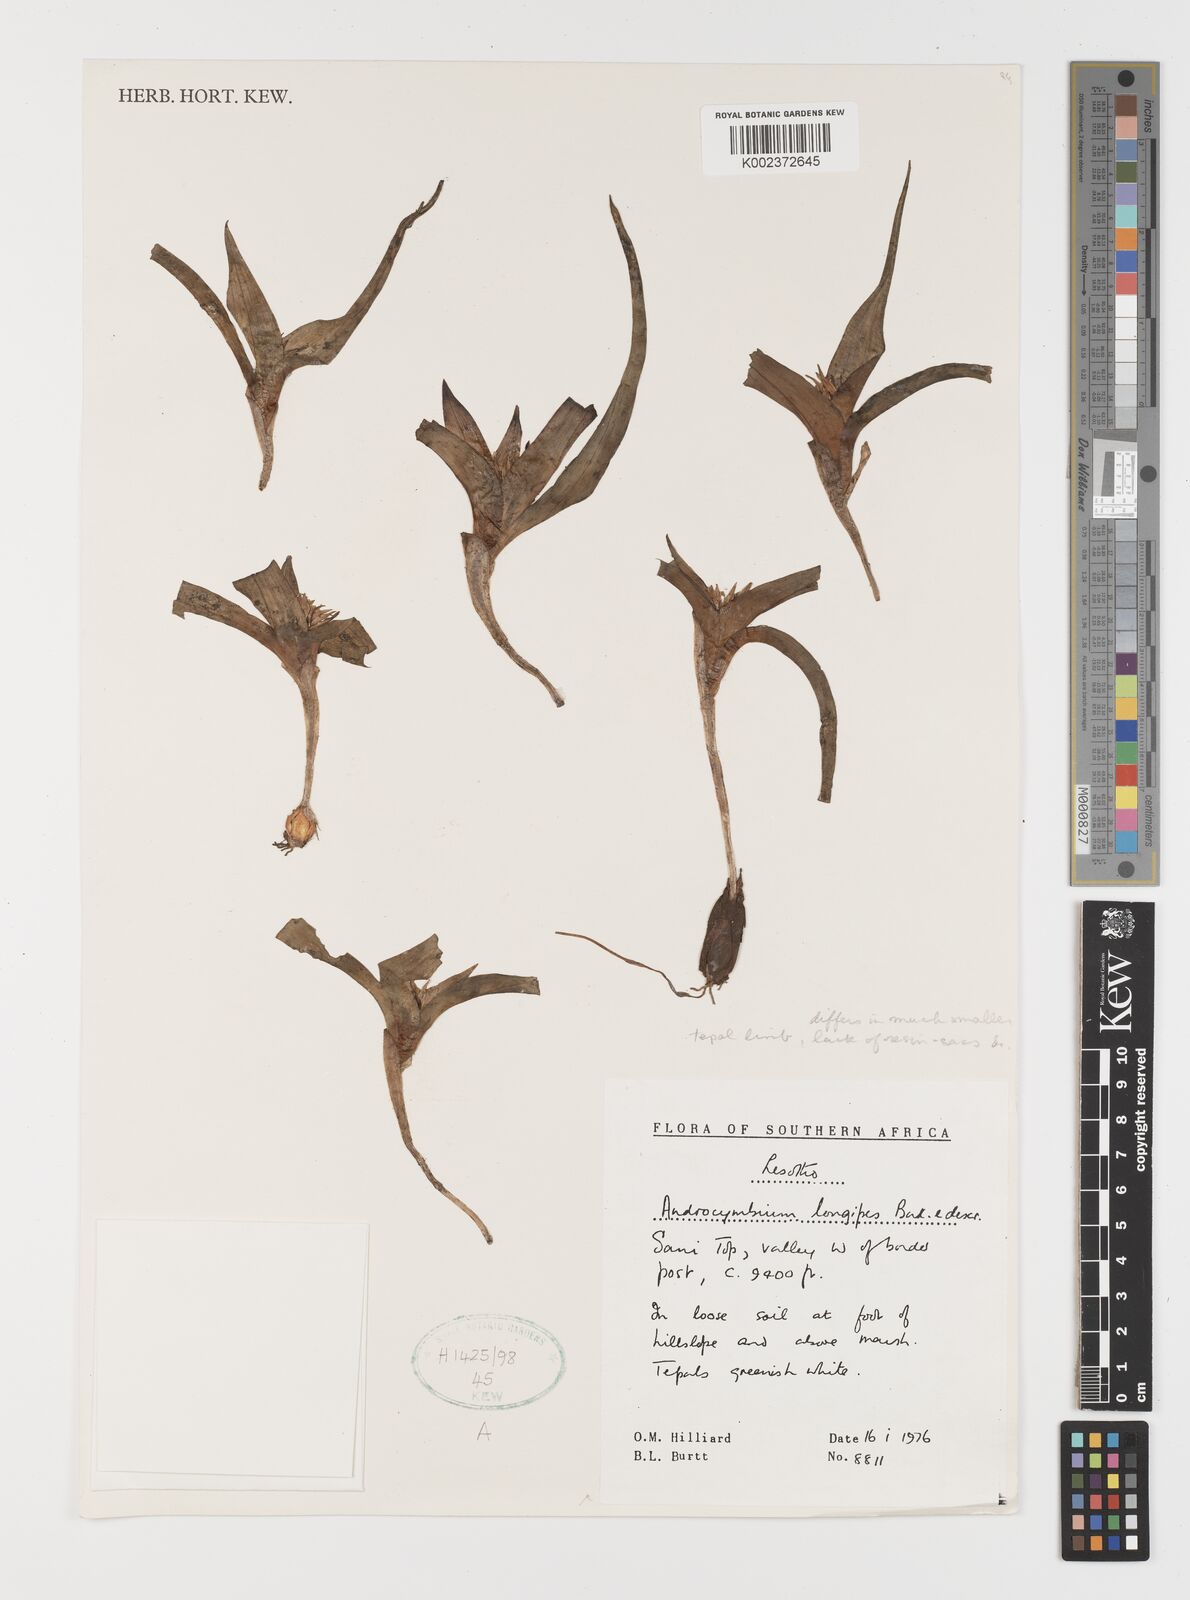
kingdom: Plantae
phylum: Tracheophyta
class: Liliopsida
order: Liliales
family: Colchicaceae
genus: Colchicum
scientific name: Colchicum longipes
